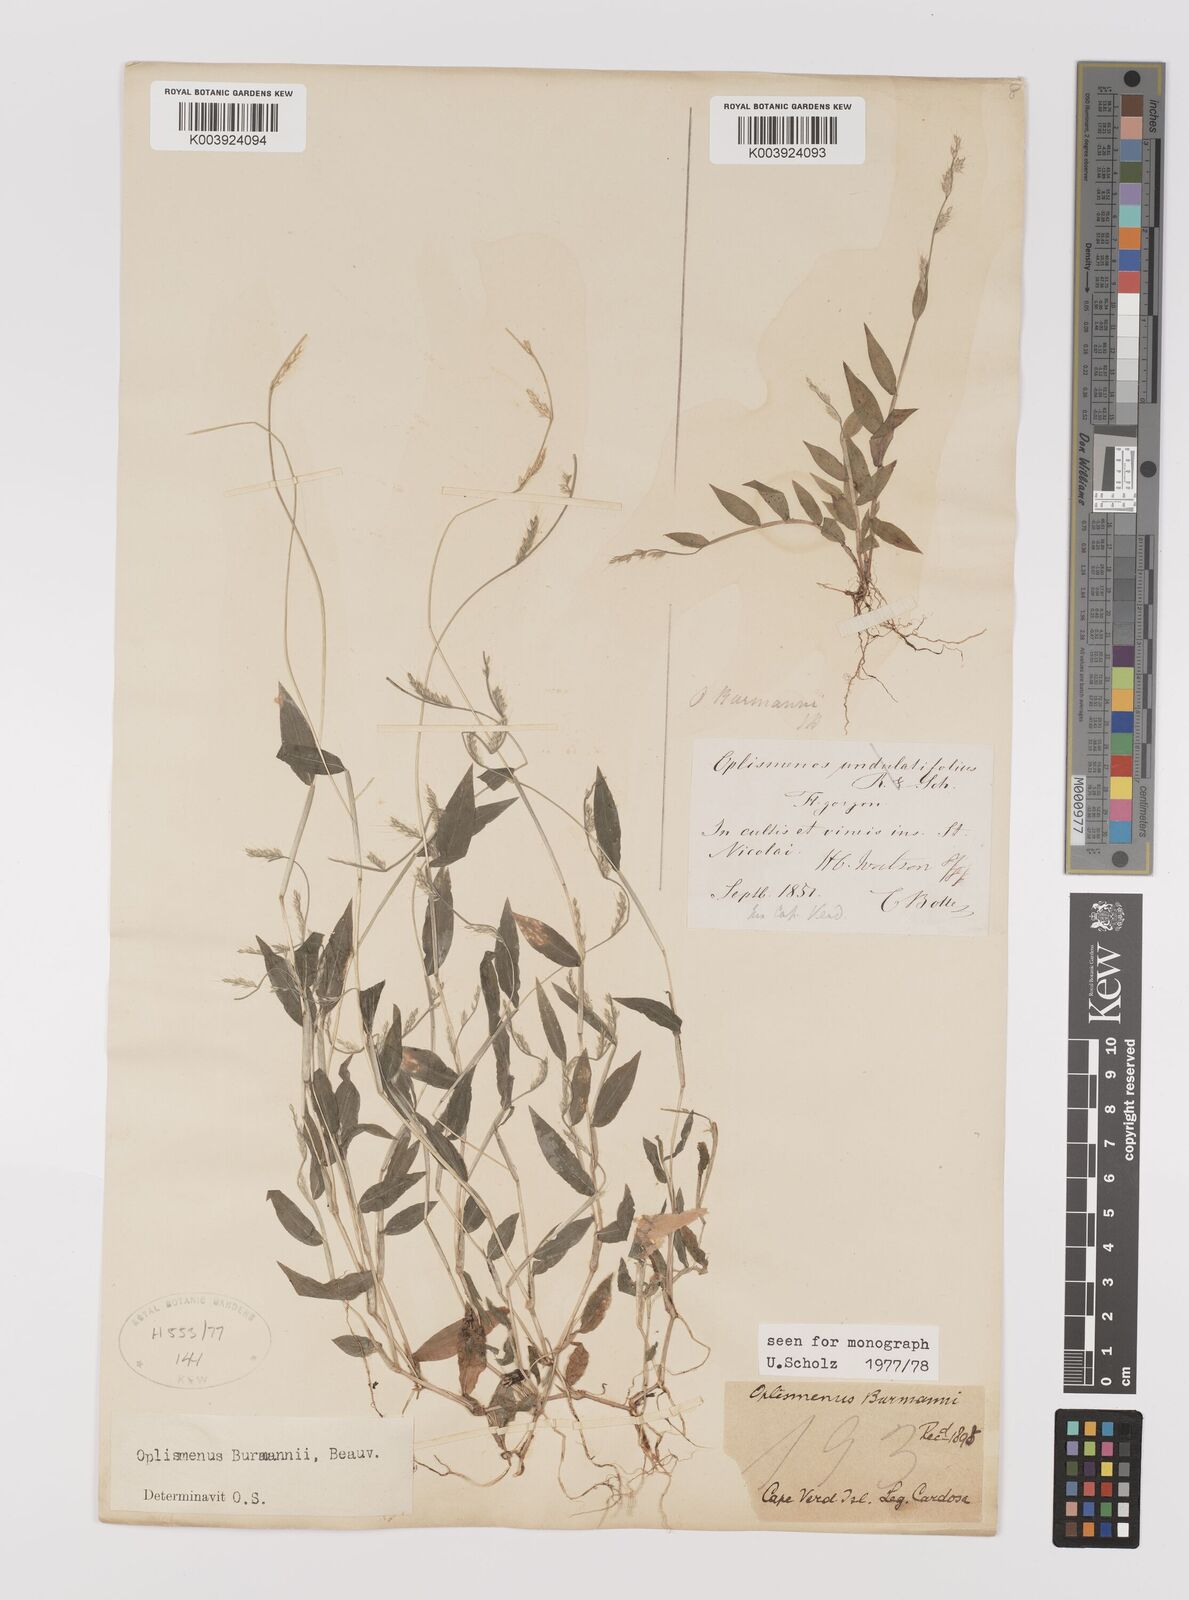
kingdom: Plantae
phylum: Tracheophyta
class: Liliopsida
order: Poales
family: Poaceae
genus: Oplismenus
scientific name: Oplismenus burmanni
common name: Burmann's basketgrass
